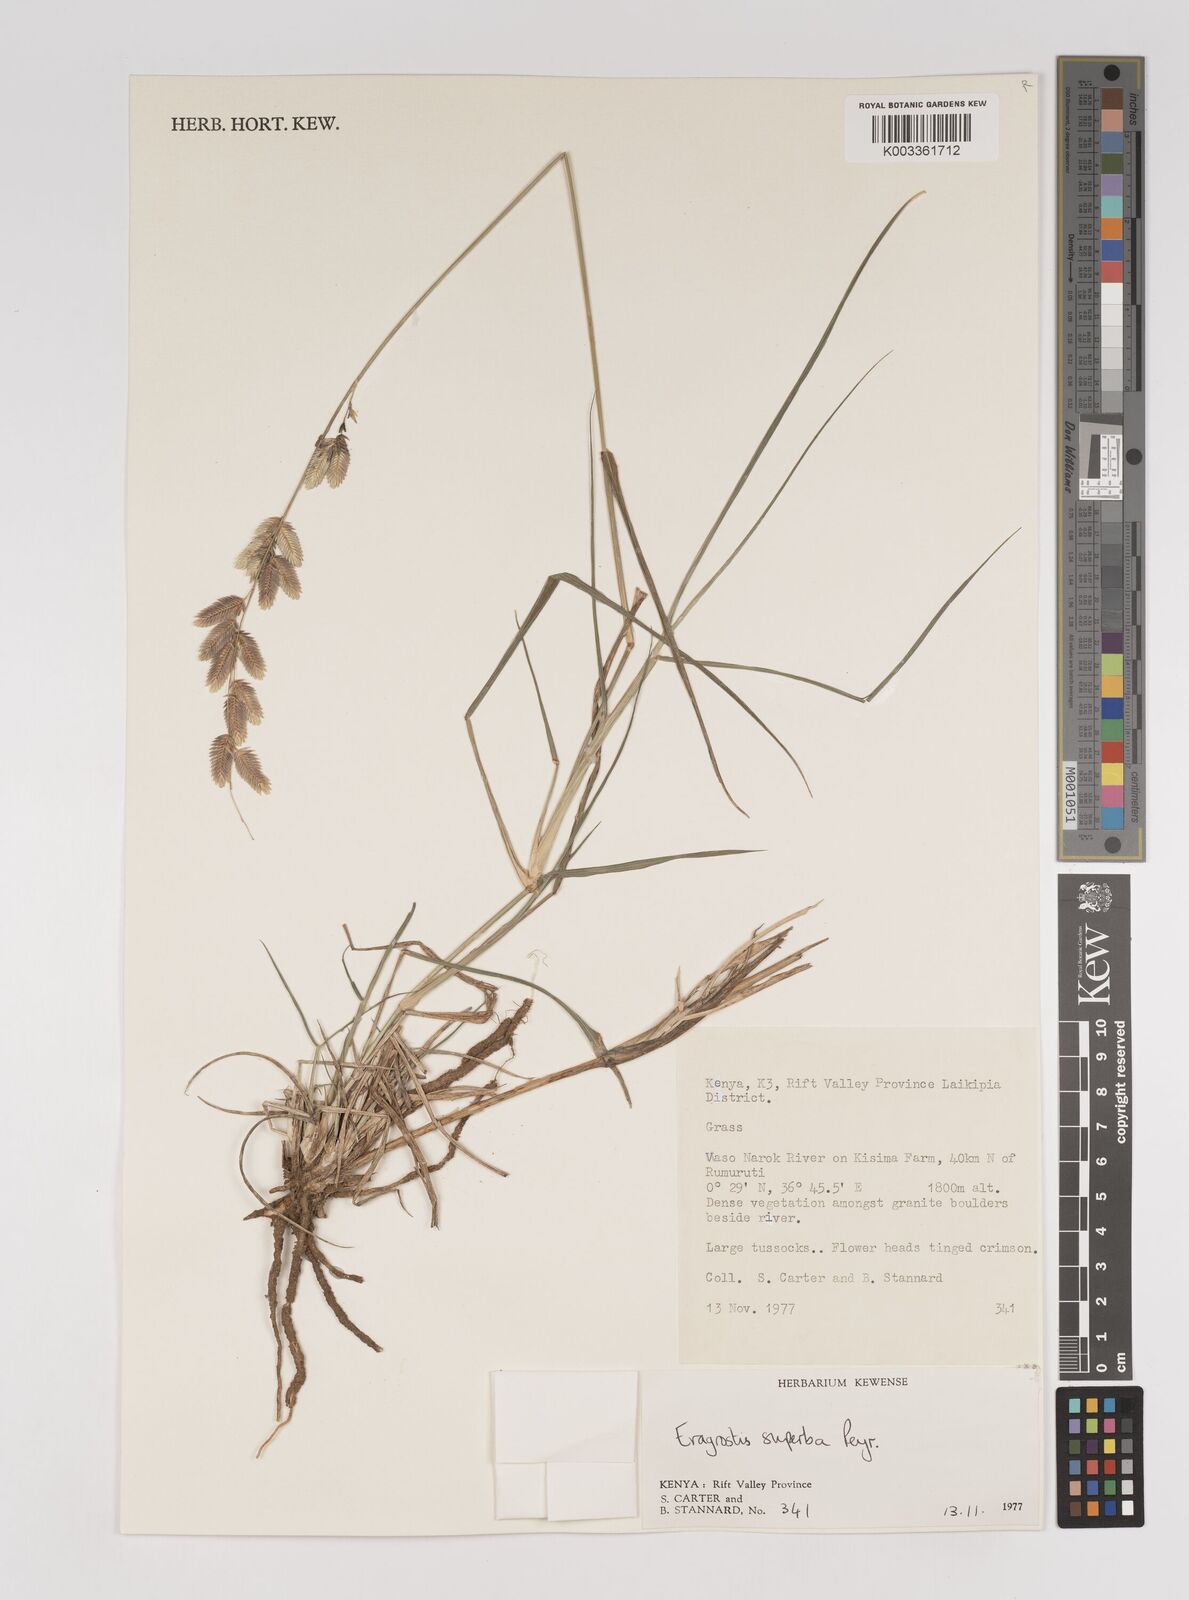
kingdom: Plantae
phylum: Tracheophyta
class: Liliopsida
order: Poales
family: Poaceae
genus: Eragrostis
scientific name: Eragrostis superba
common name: Wilman lovegrass
